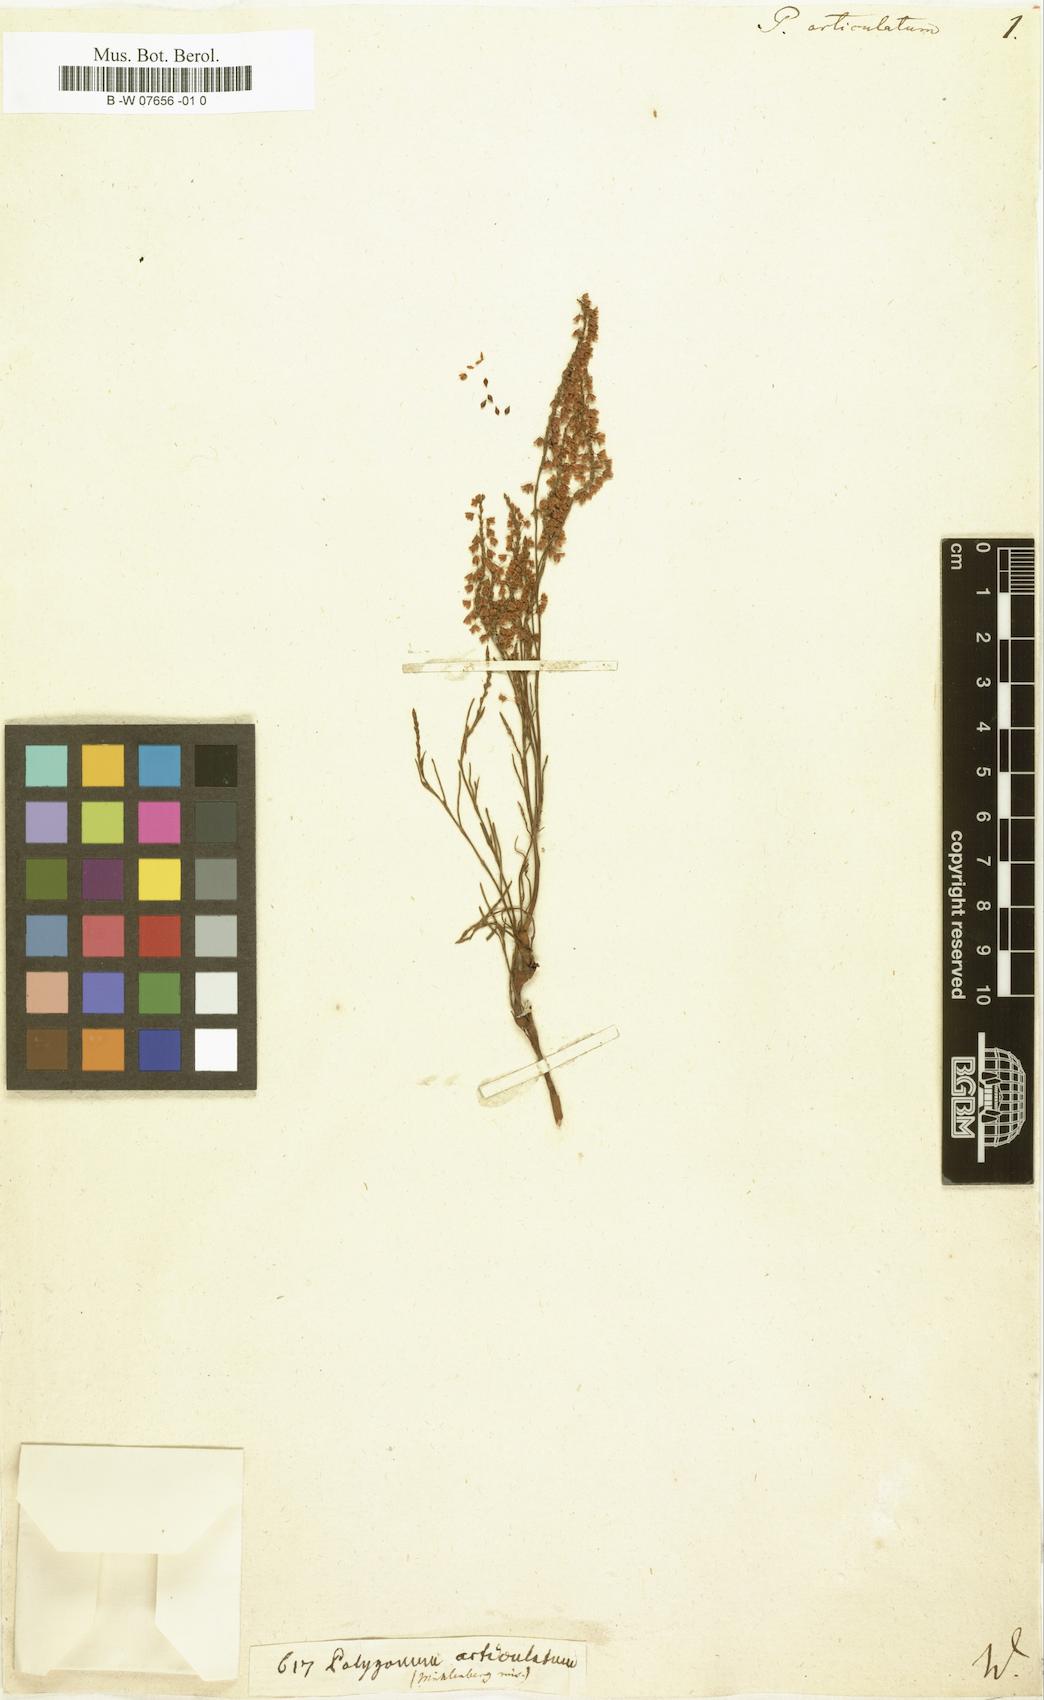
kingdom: Plantae
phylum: Tracheophyta
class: Magnoliopsida
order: Caryophyllales
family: Polygonaceae
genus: Polygonella
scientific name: Polygonella articulata
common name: Coastal jointweed
